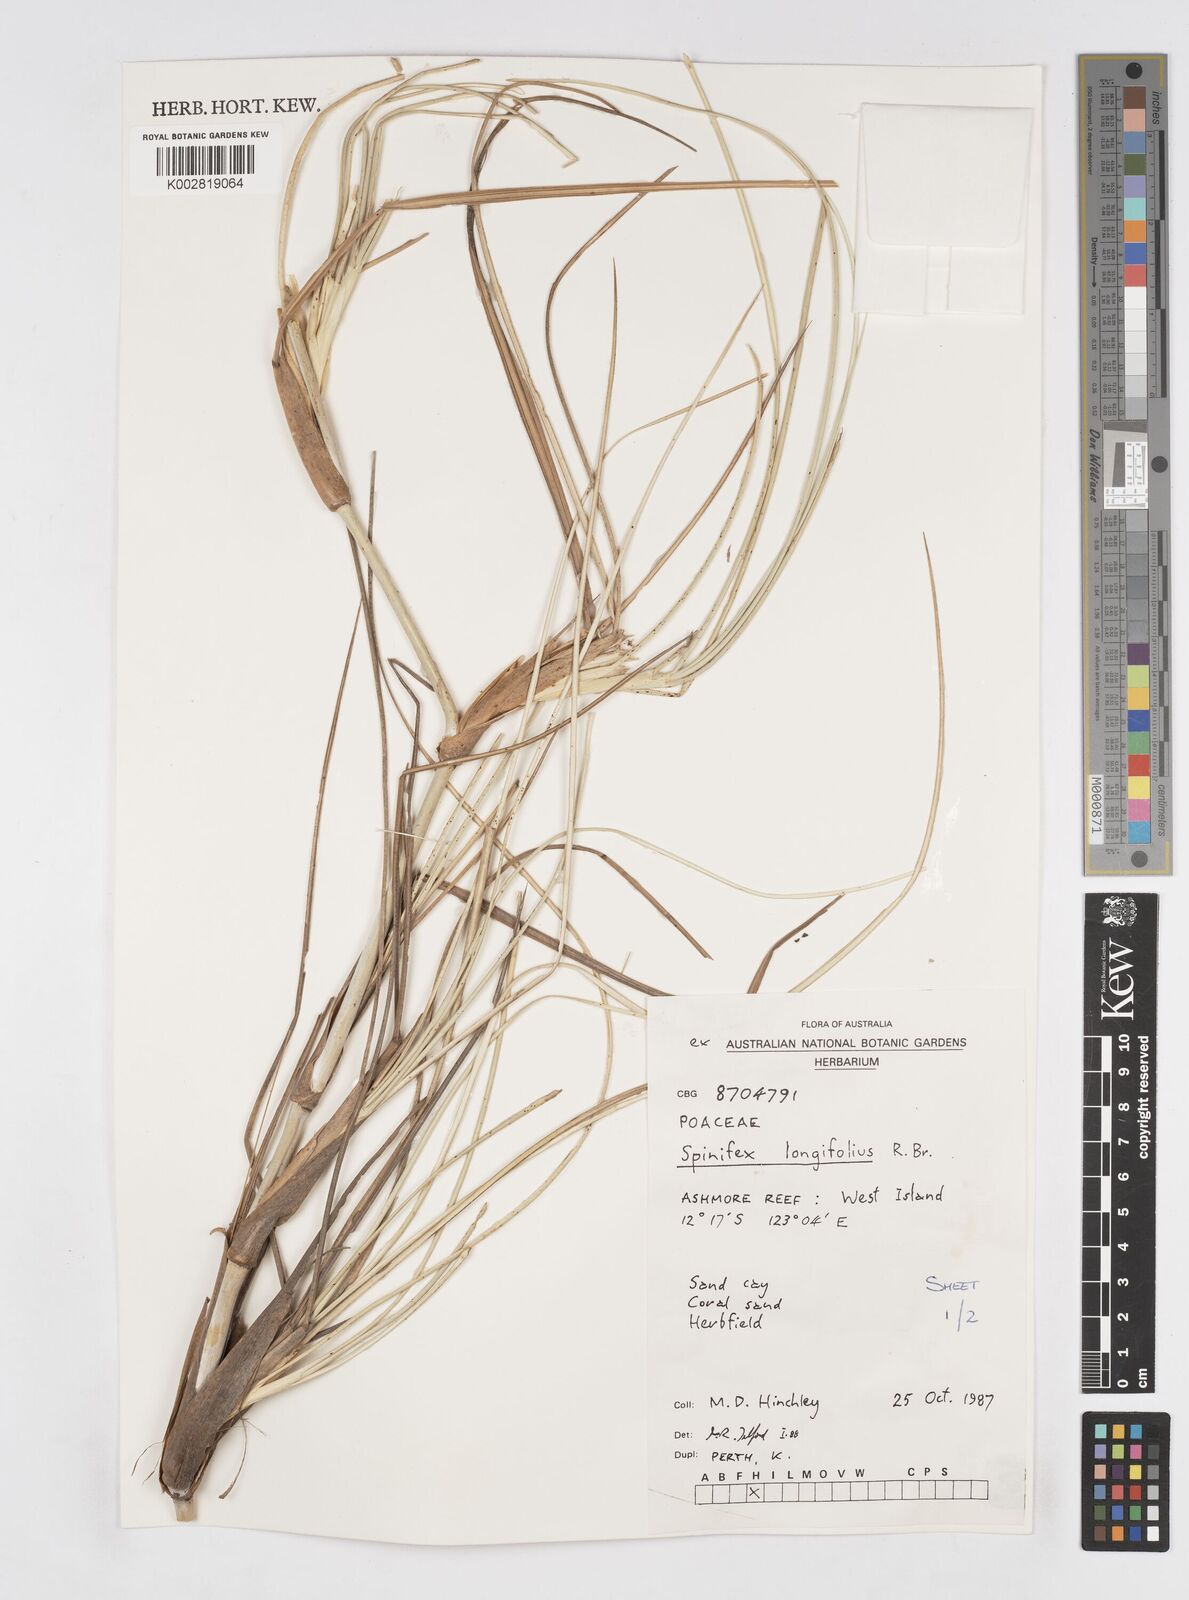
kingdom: Plantae
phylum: Tracheophyta
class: Liliopsida
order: Poales
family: Poaceae
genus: Spinifex
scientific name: Spinifex longifolius
